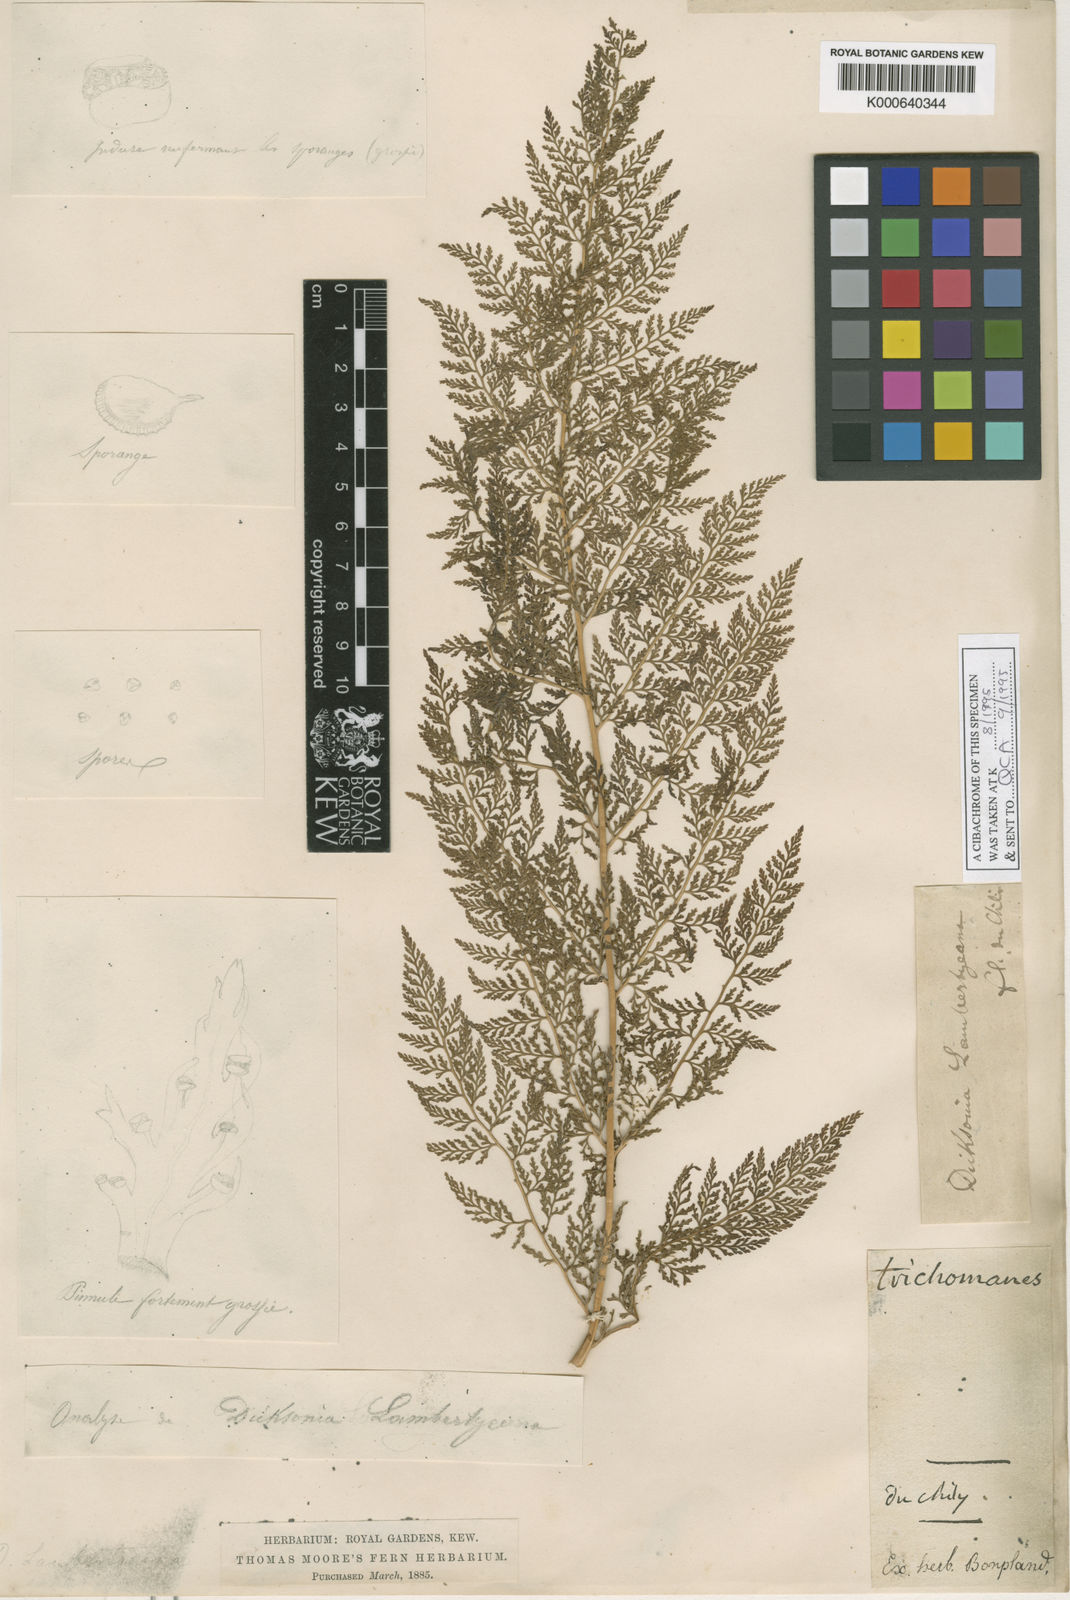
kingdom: Plantae
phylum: Tracheophyta
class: Polypodiopsida
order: Polypodiales
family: Dennstaedtiaceae
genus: Dennstaedtia
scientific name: Dennstaedtia glauca
